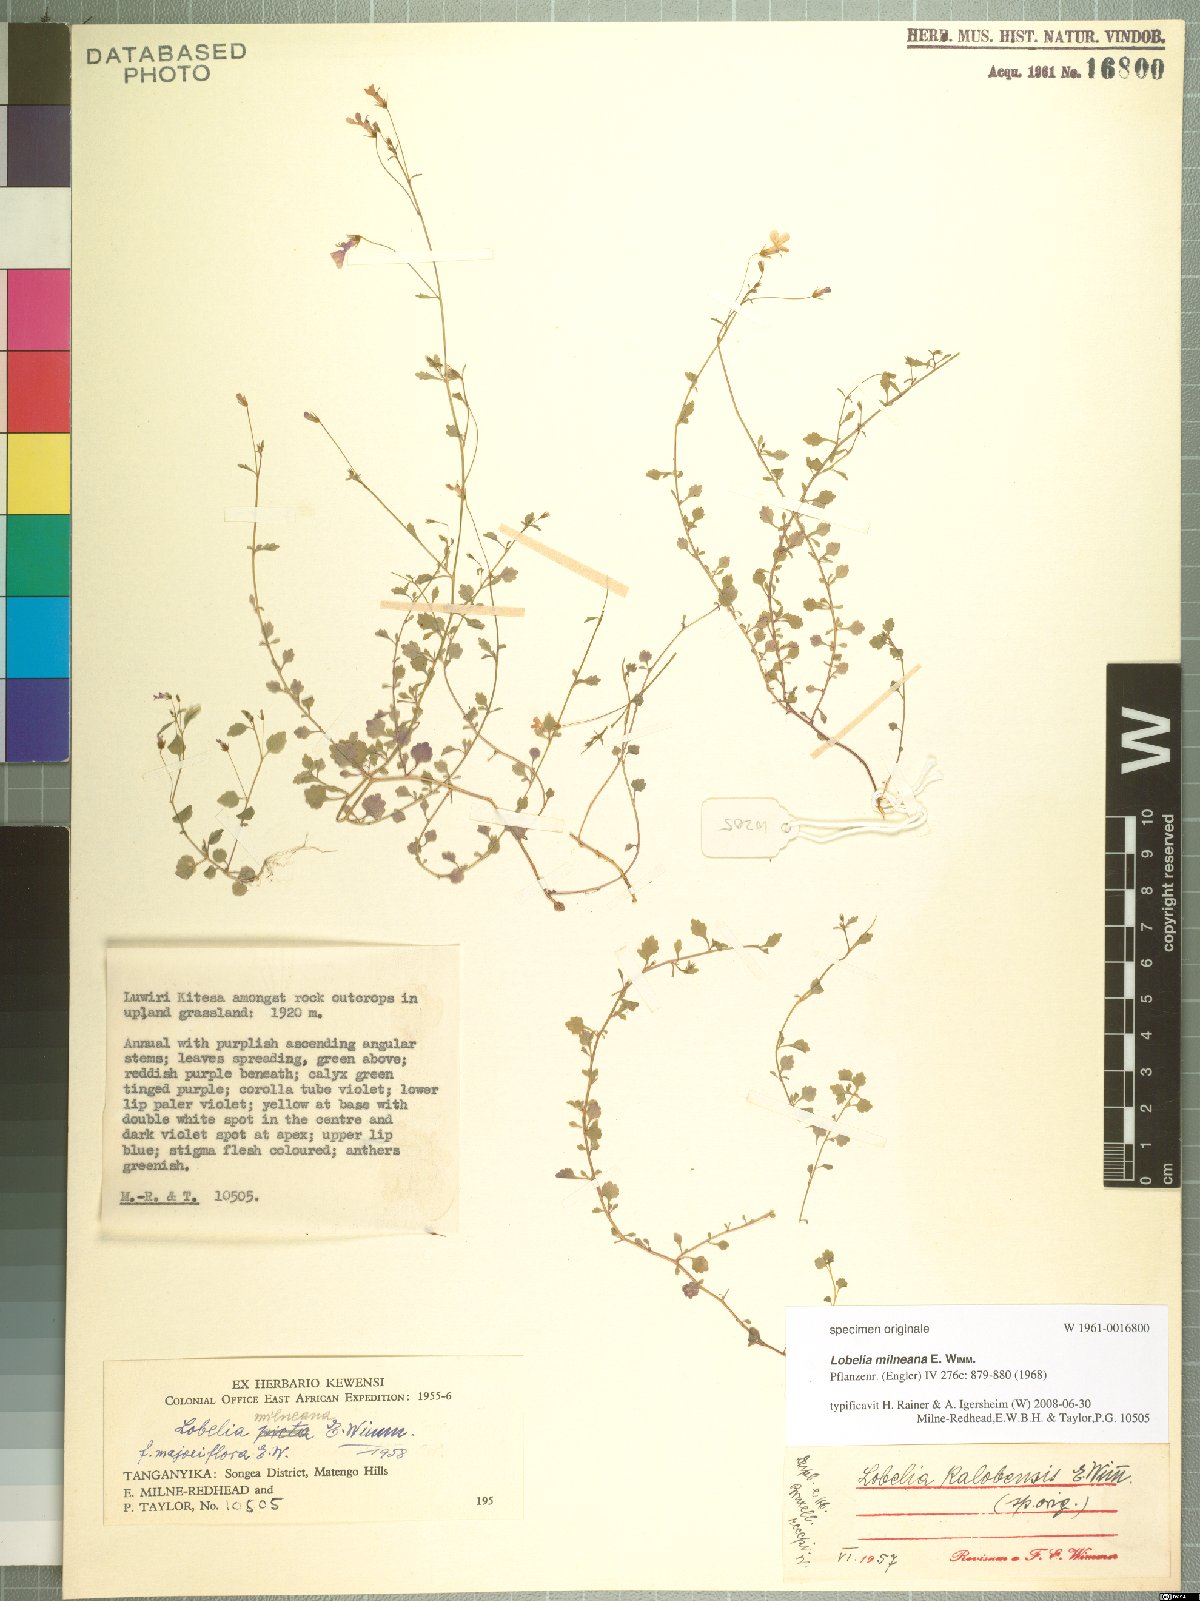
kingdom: Plantae
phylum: Tracheophyta
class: Magnoliopsida
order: Asterales
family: Campanulaceae
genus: Lobelia
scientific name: Lobelia trullifolia
